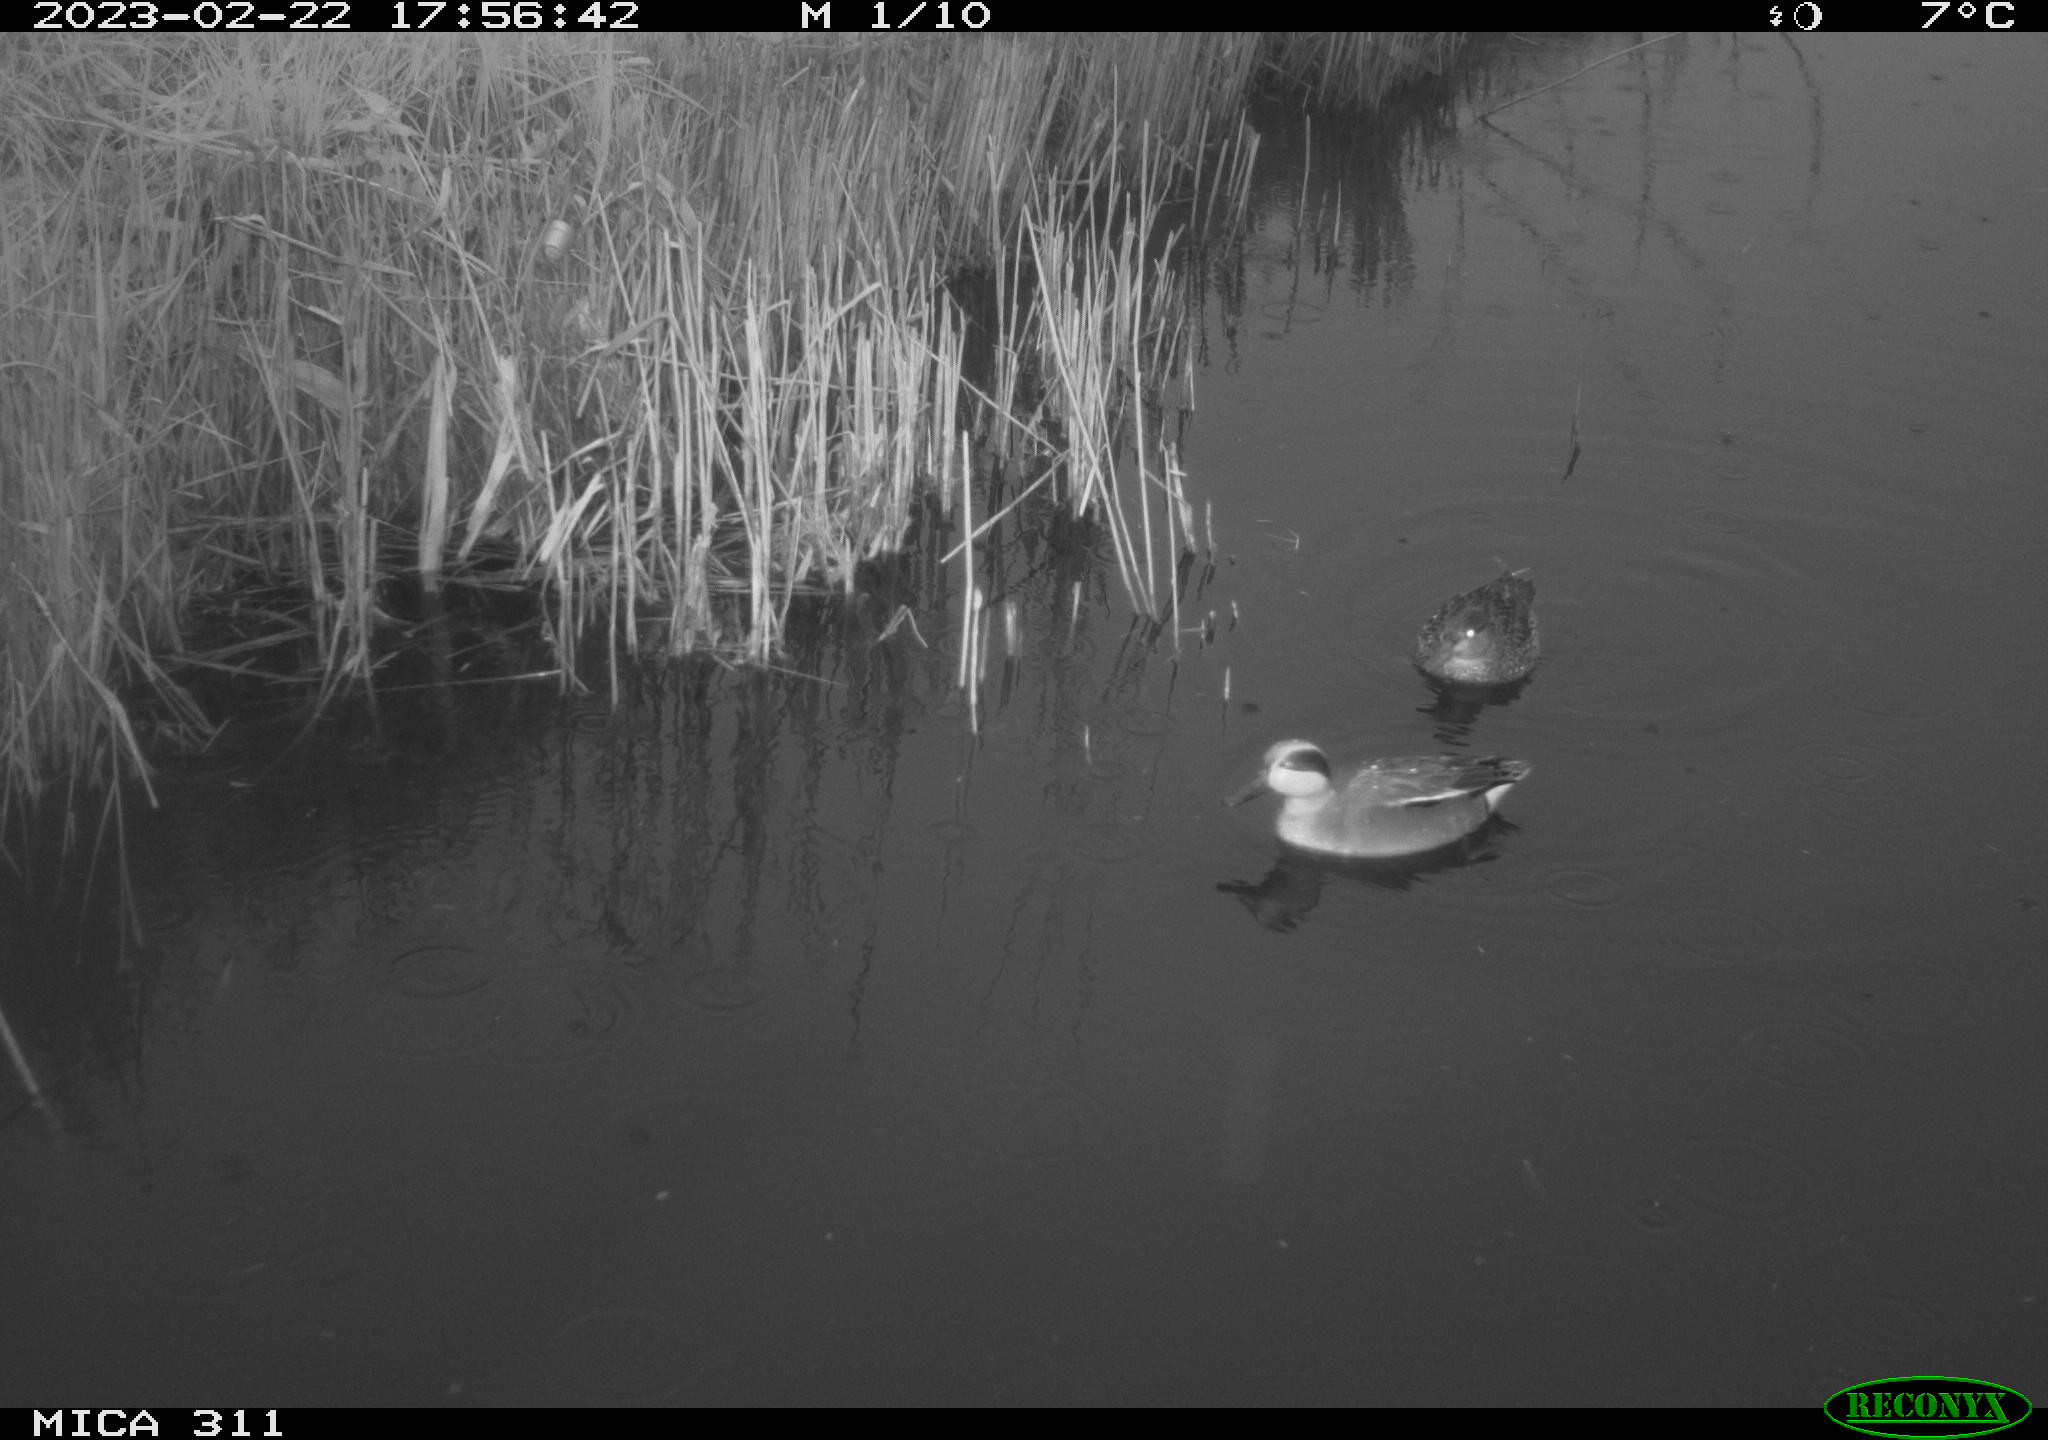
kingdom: Animalia
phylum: Chordata
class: Aves
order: Anseriformes
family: Anatidae
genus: Anas
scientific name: Anas
